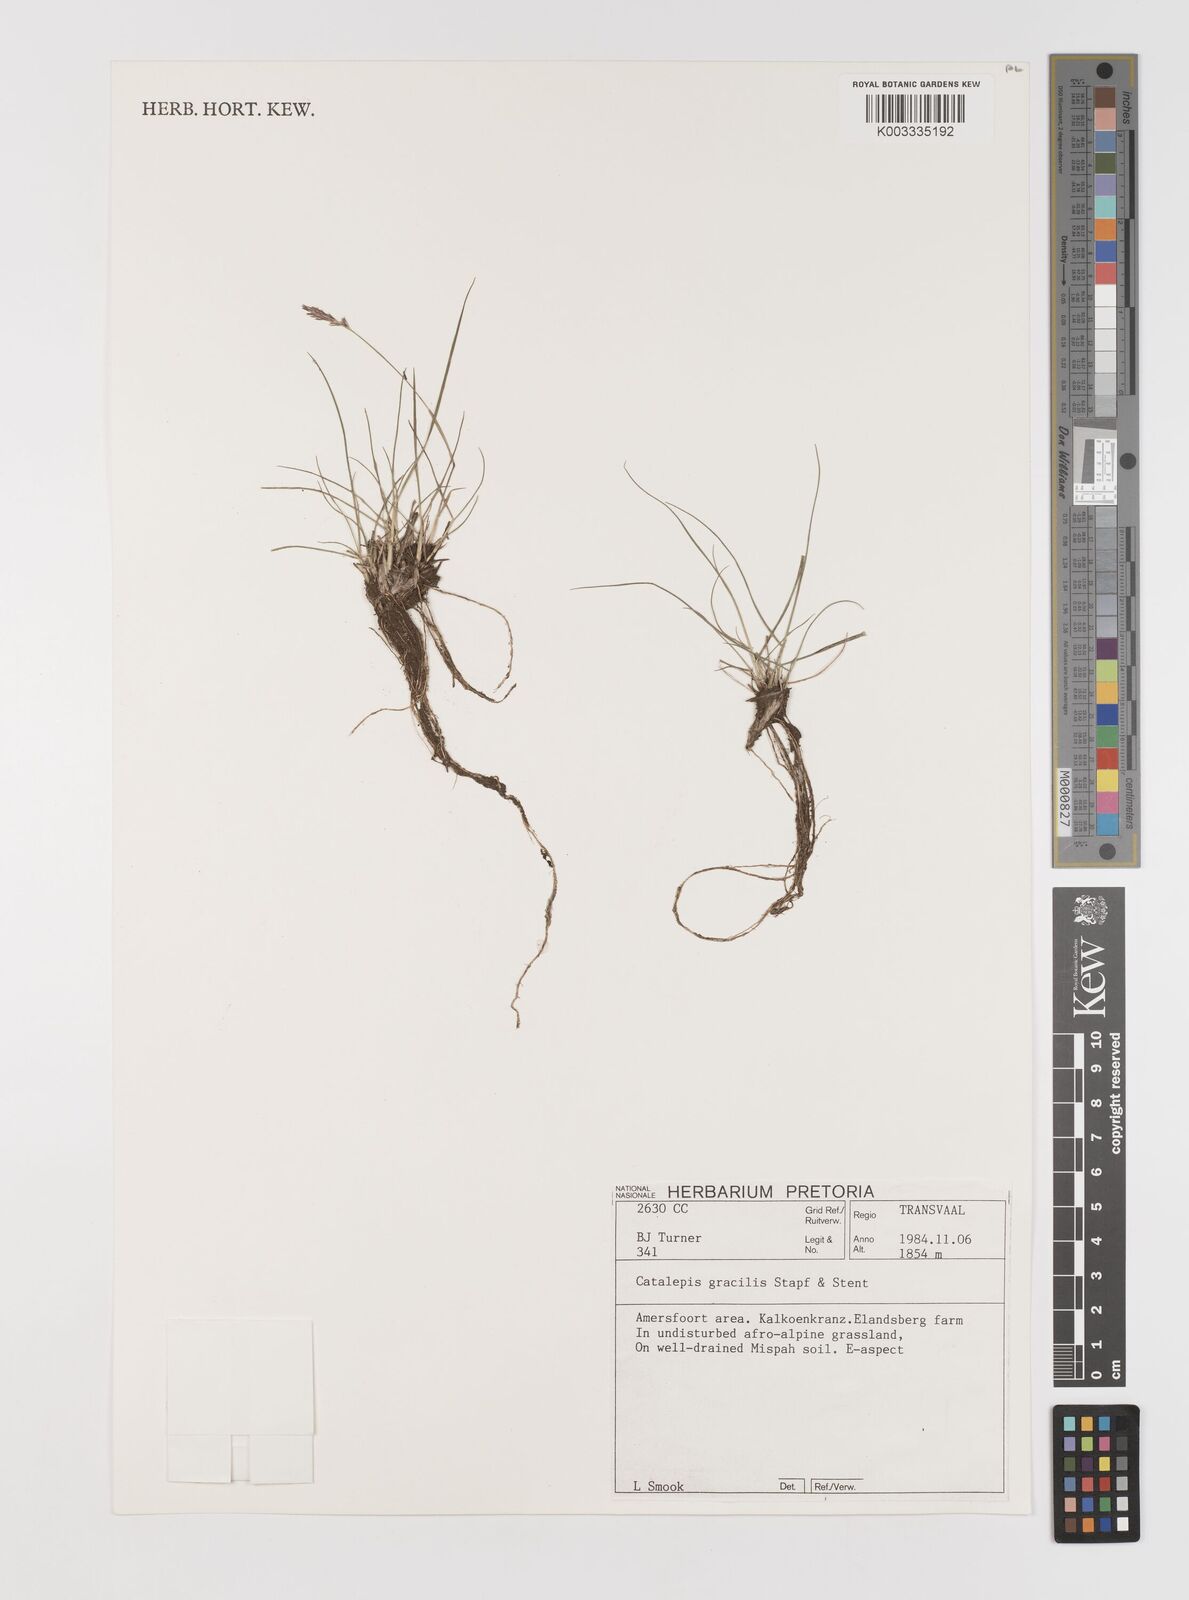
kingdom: Plantae
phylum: Tracheophyta
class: Liliopsida
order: Poales
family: Poaceae
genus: Catalepis
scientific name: Catalepis gracilis
